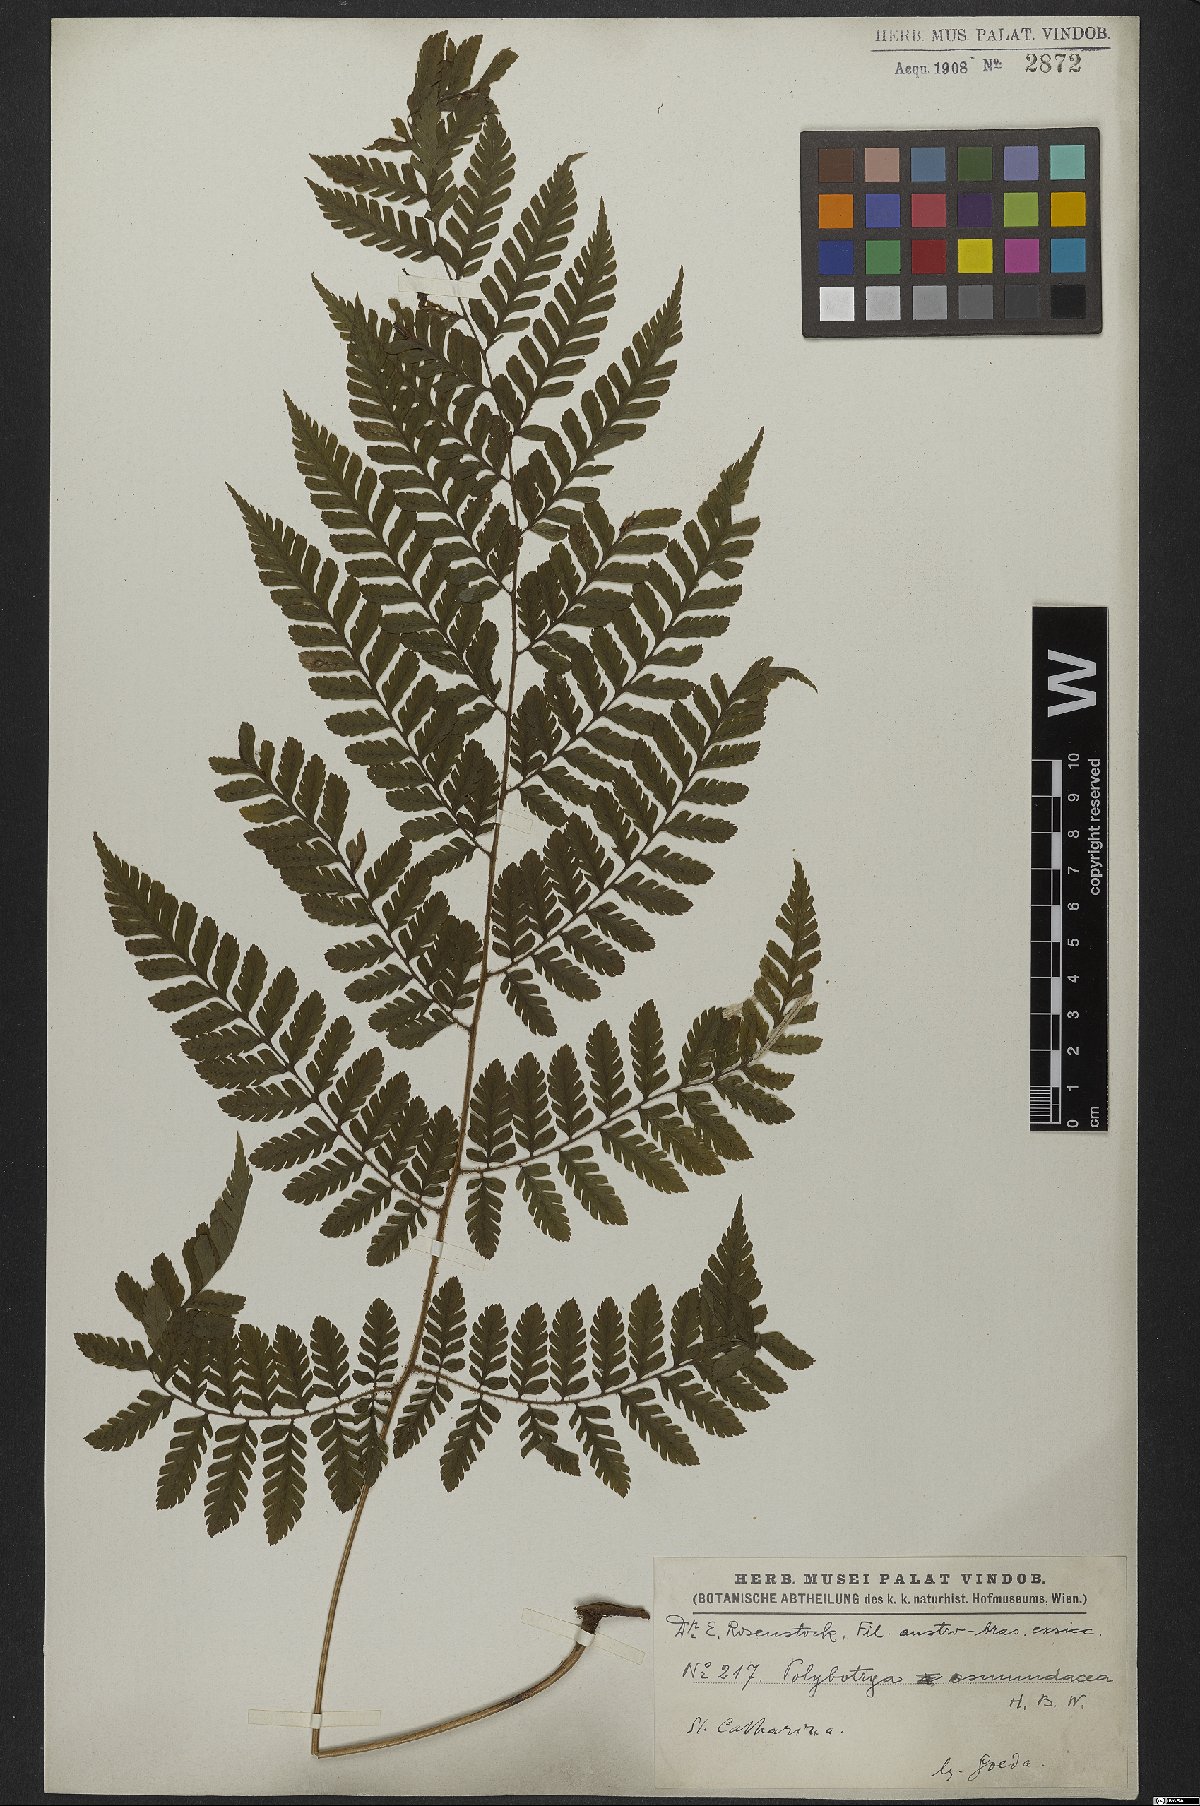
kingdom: Plantae
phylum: Tracheophyta
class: Polypodiopsida
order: Polypodiales
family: Dryopteridaceae
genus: Polybotrya
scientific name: Polybotrya osmundacea
